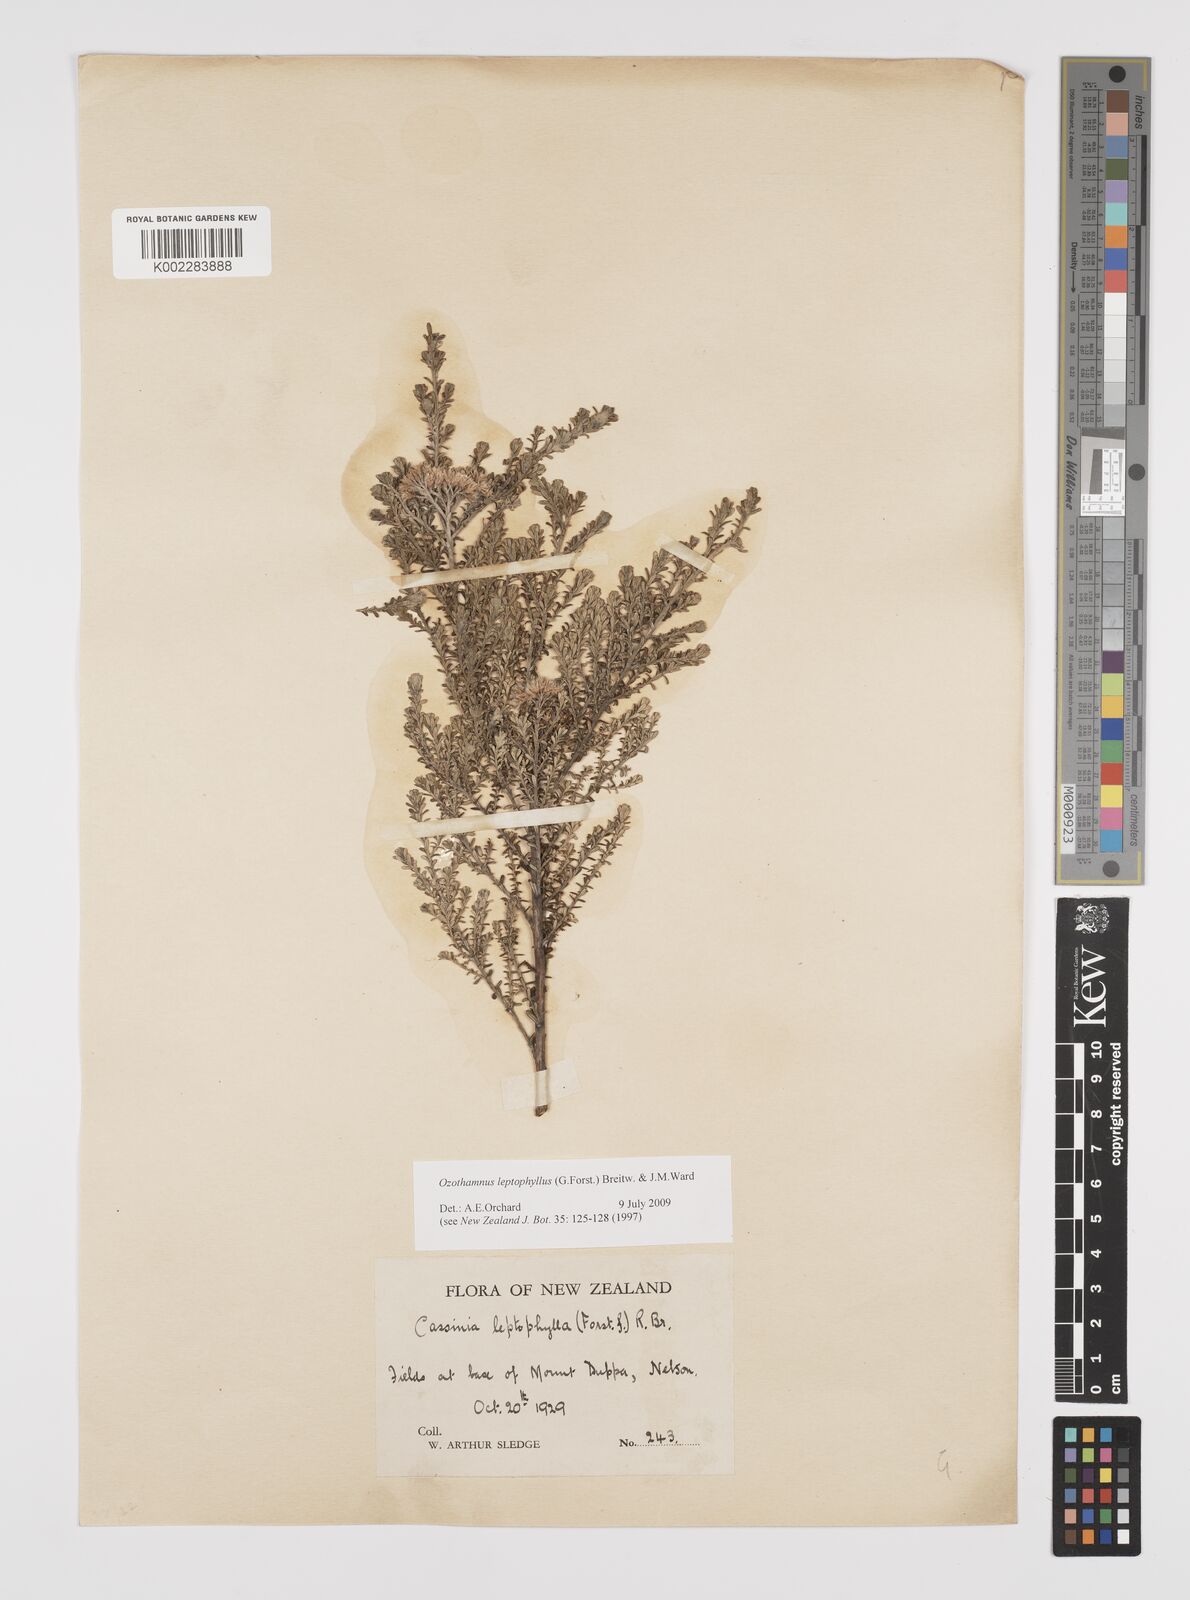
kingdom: Plantae
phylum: Tracheophyta
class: Magnoliopsida
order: Asterales
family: Asteraceae
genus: Ozothamnus
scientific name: Ozothamnus leptophyllus
